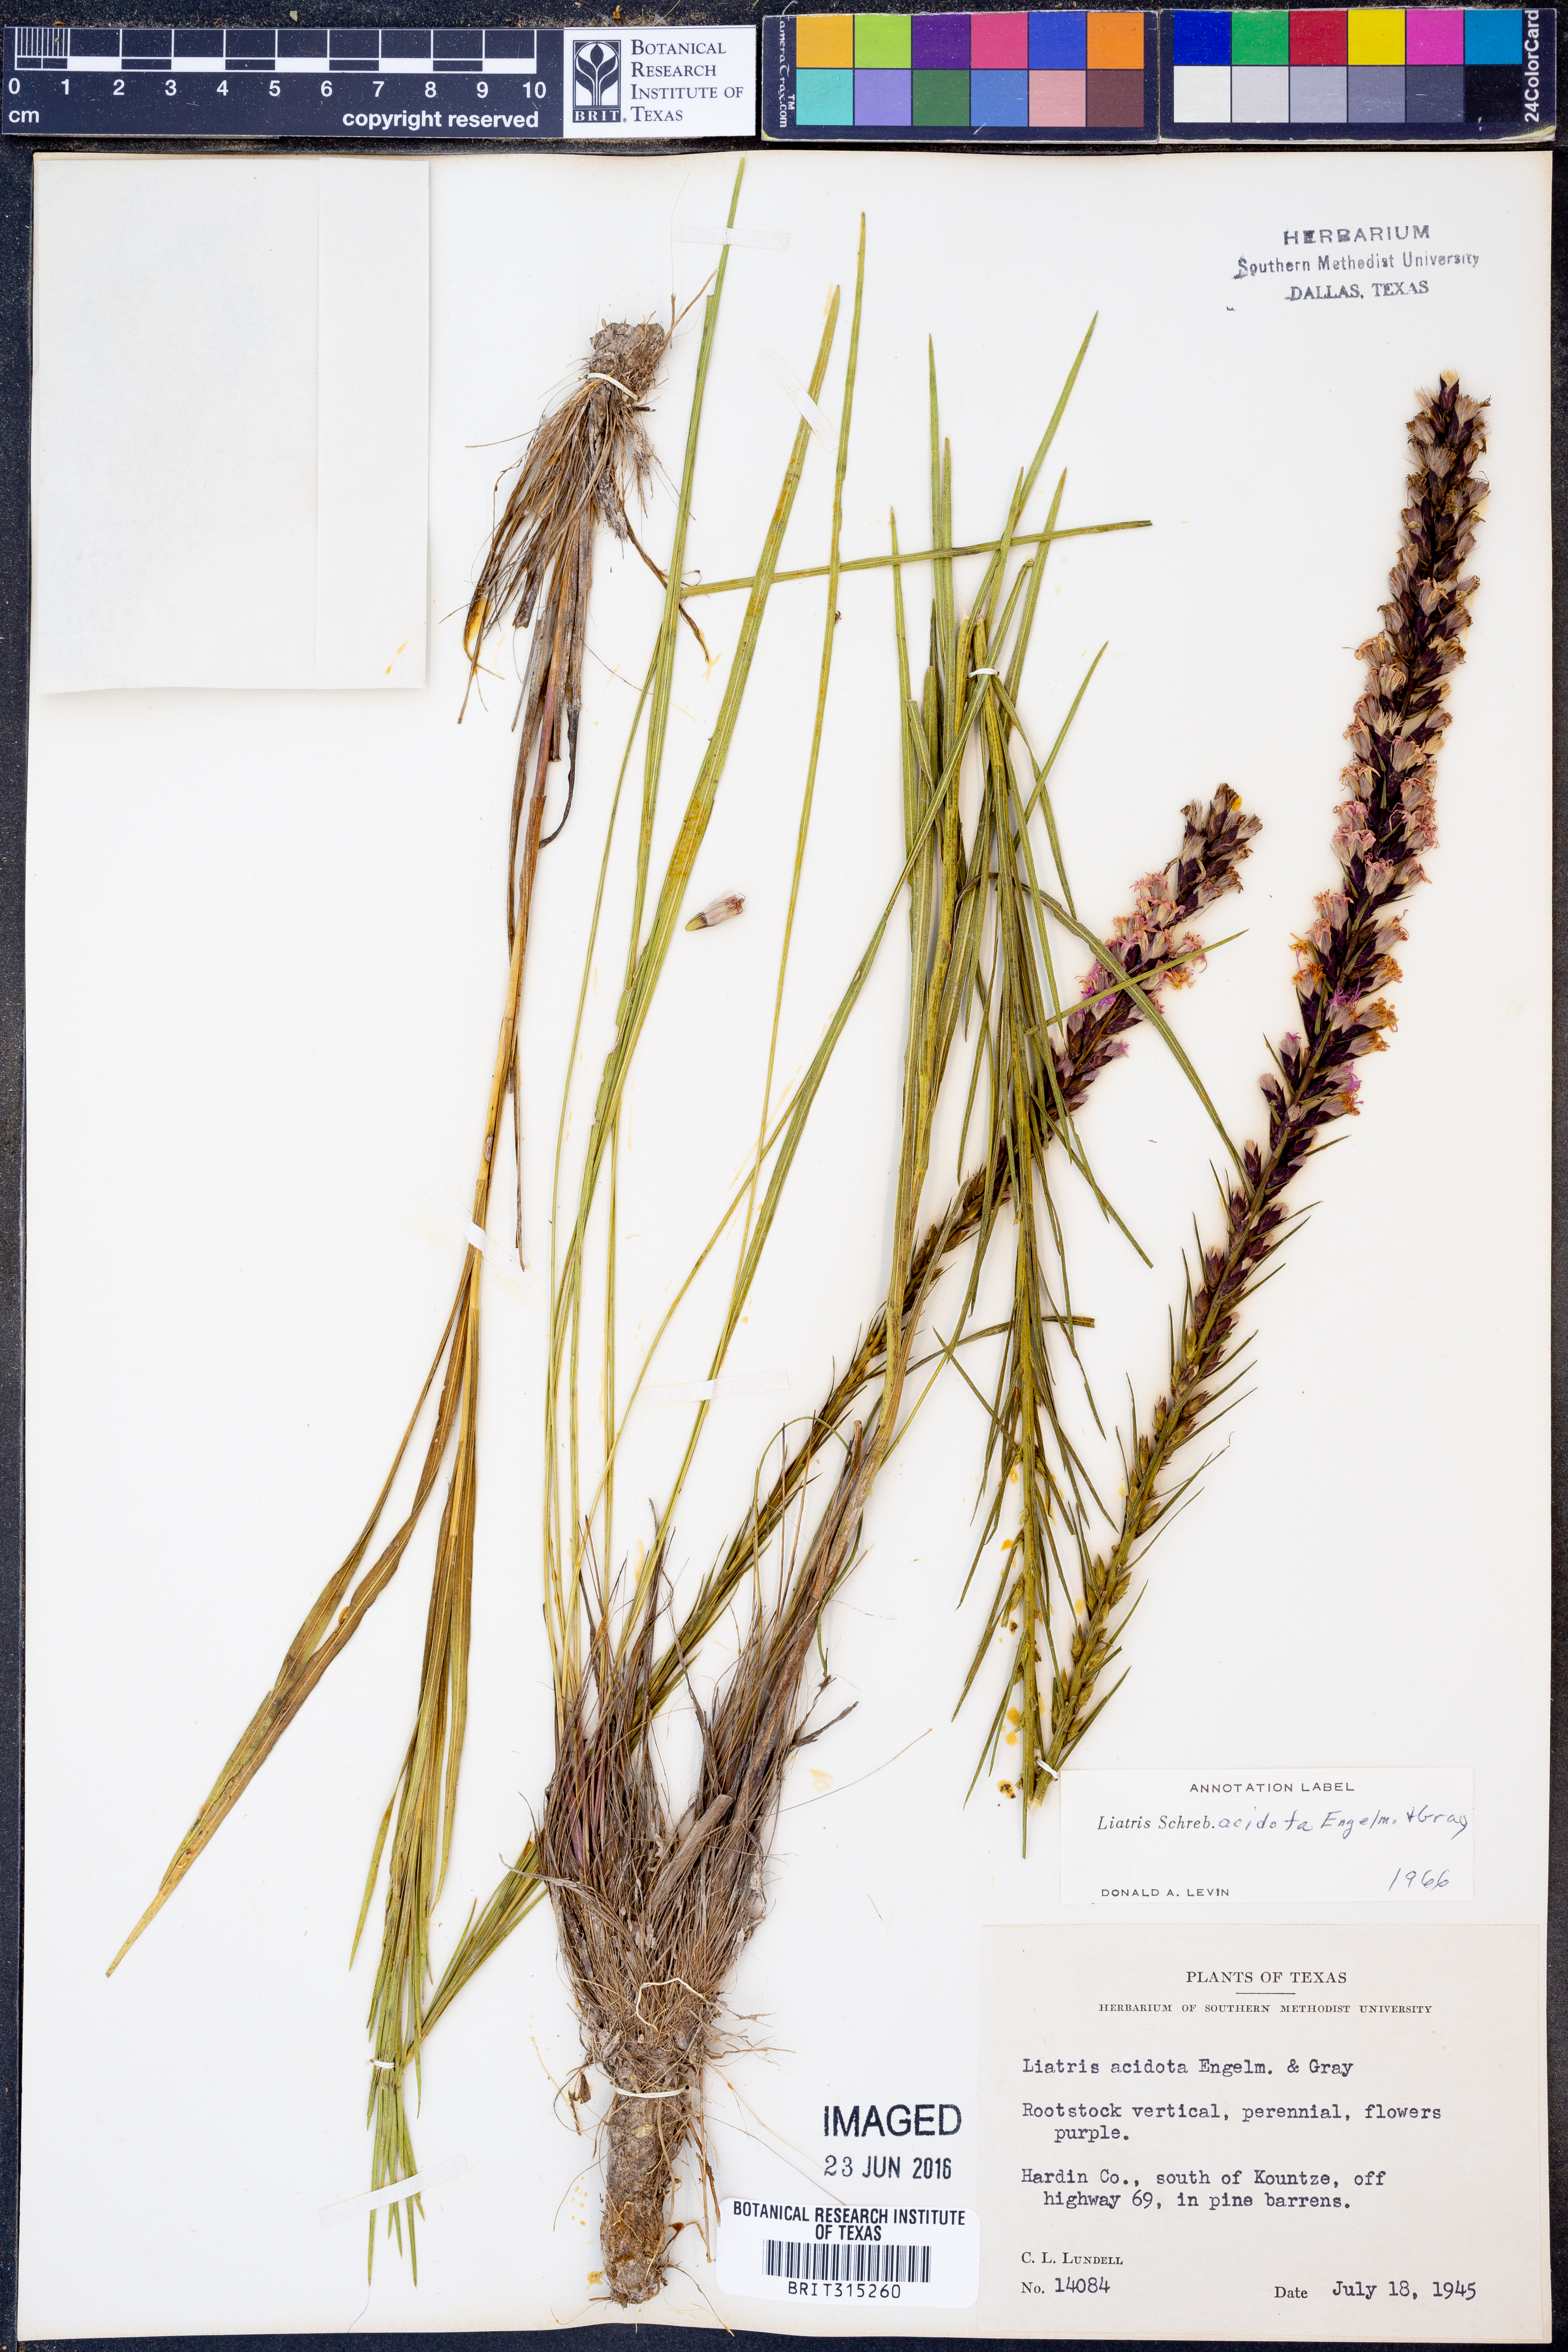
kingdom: Plantae
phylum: Tracheophyta
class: Magnoliopsida
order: Asterales
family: Asteraceae
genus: Liatris
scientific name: Liatris acidota
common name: Gulf coast gayfeather
